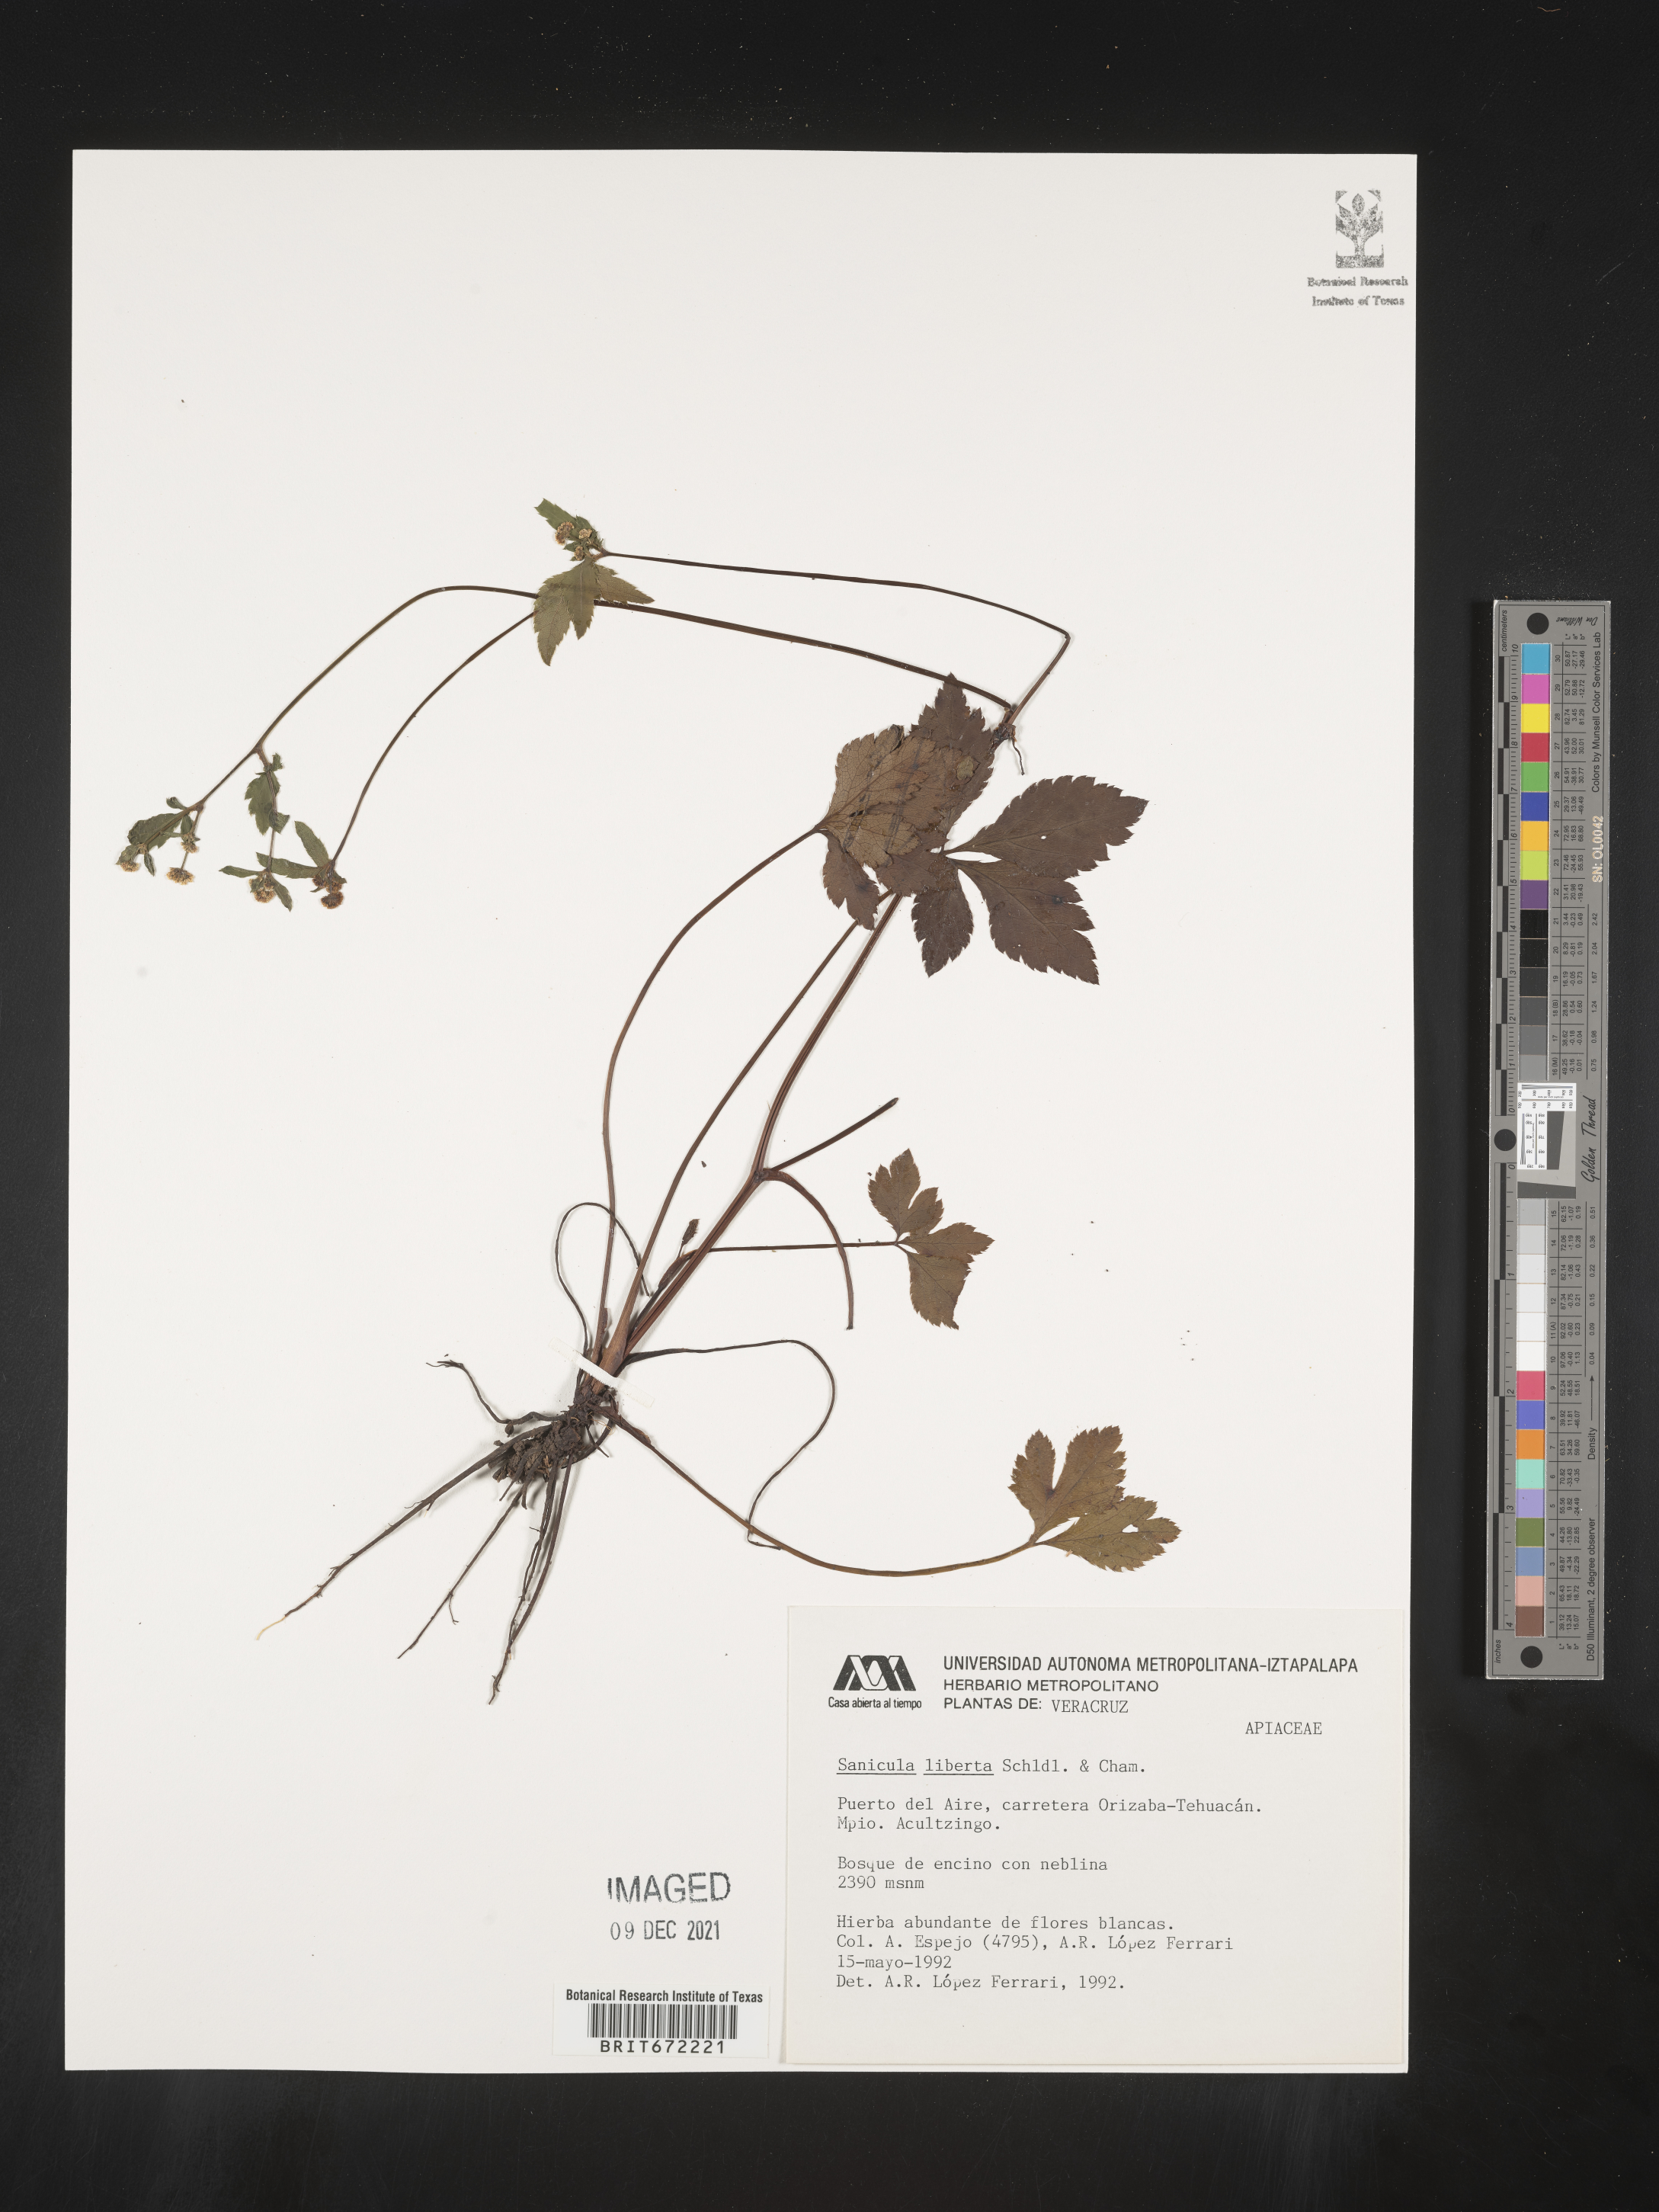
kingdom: Plantae
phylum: Tracheophyta
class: Magnoliopsida
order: Apiales
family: Apiaceae
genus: Sanicula
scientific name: Sanicula
